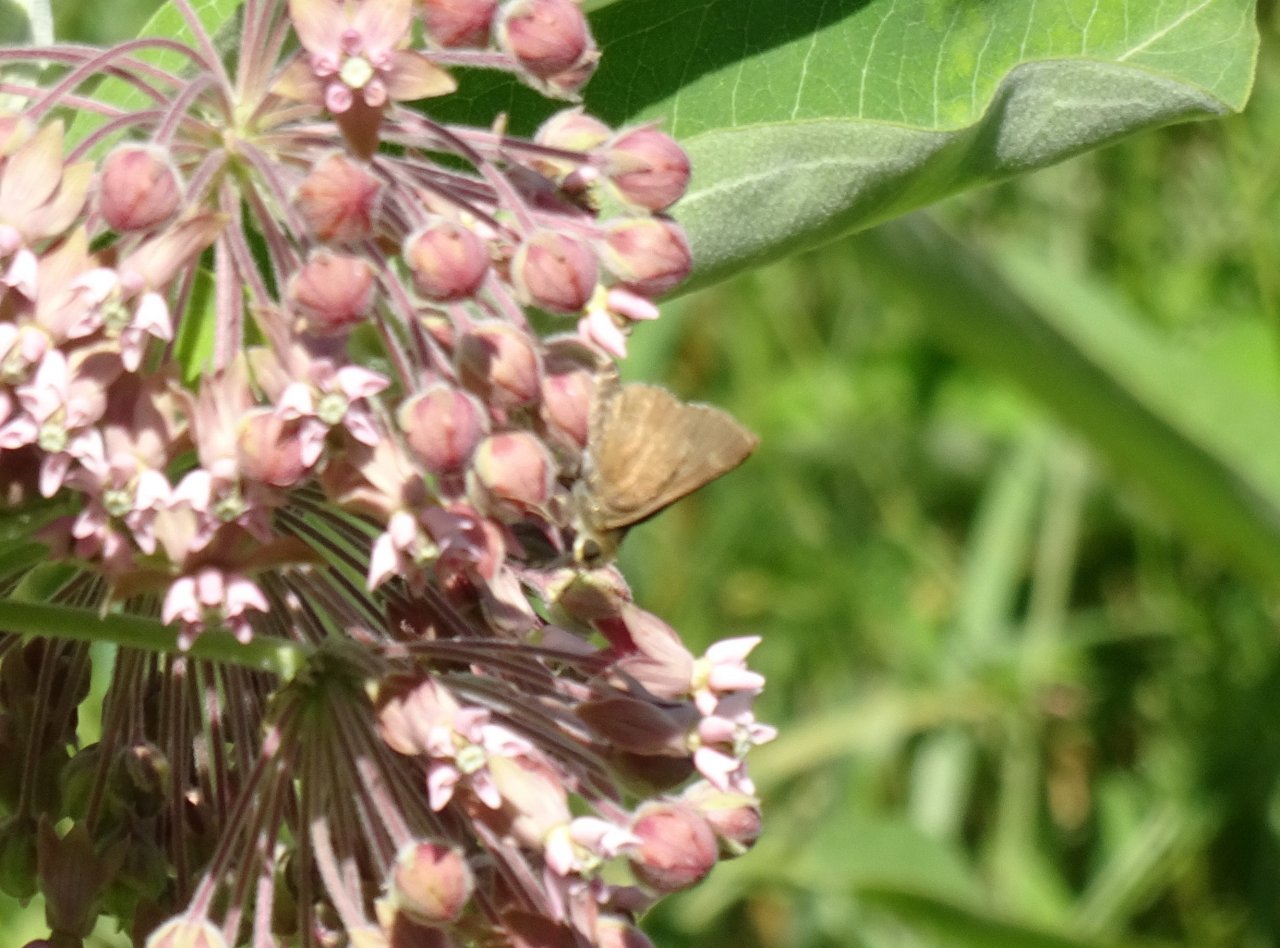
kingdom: Animalia
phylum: Arthropoda
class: Insecta
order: Lepidoptera
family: Hesperiidae
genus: Euphyes
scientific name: Euphyes vestris
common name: Dun Skipper
